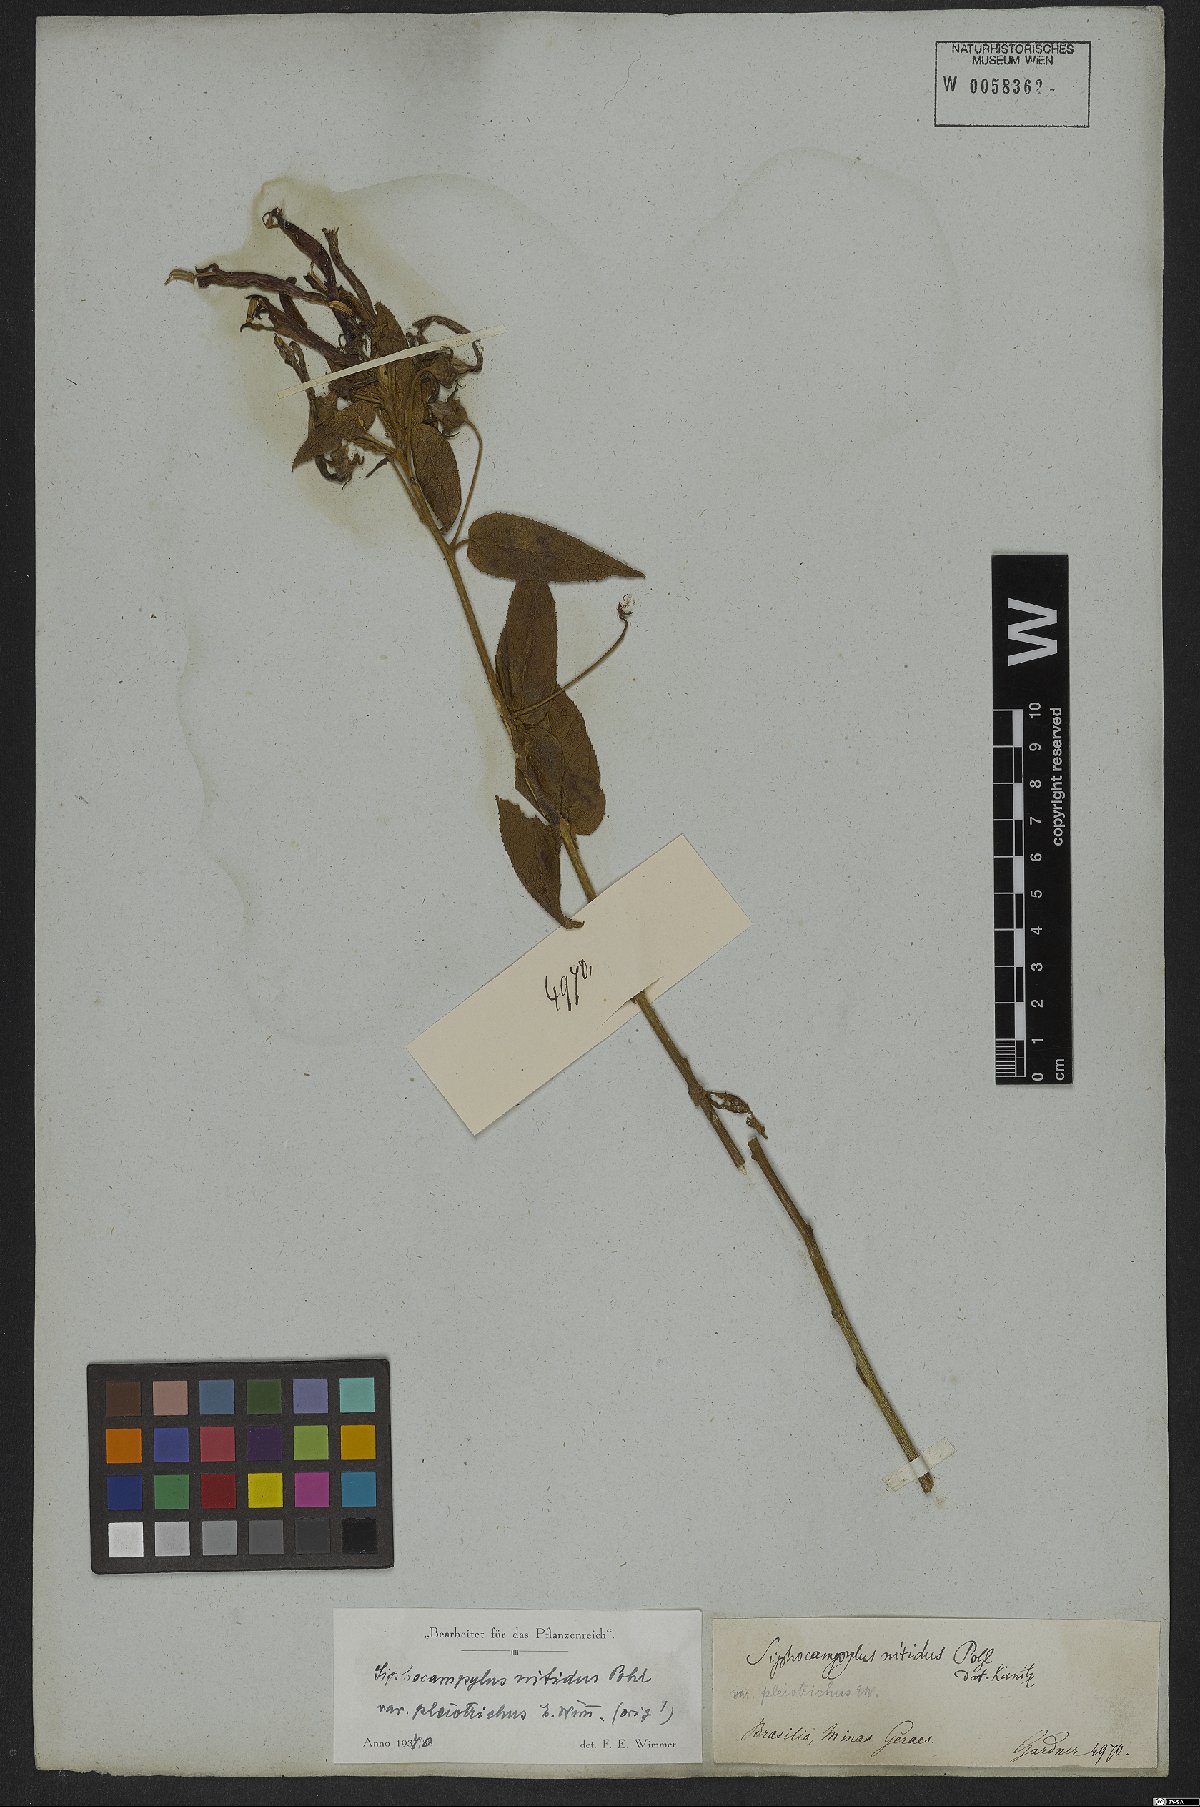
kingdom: Plantae
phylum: Tracheophyta
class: Magnoliopsida
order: Asterales
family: Campanulaceae
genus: Siphocampylus
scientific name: Siphocampylus nitidus
